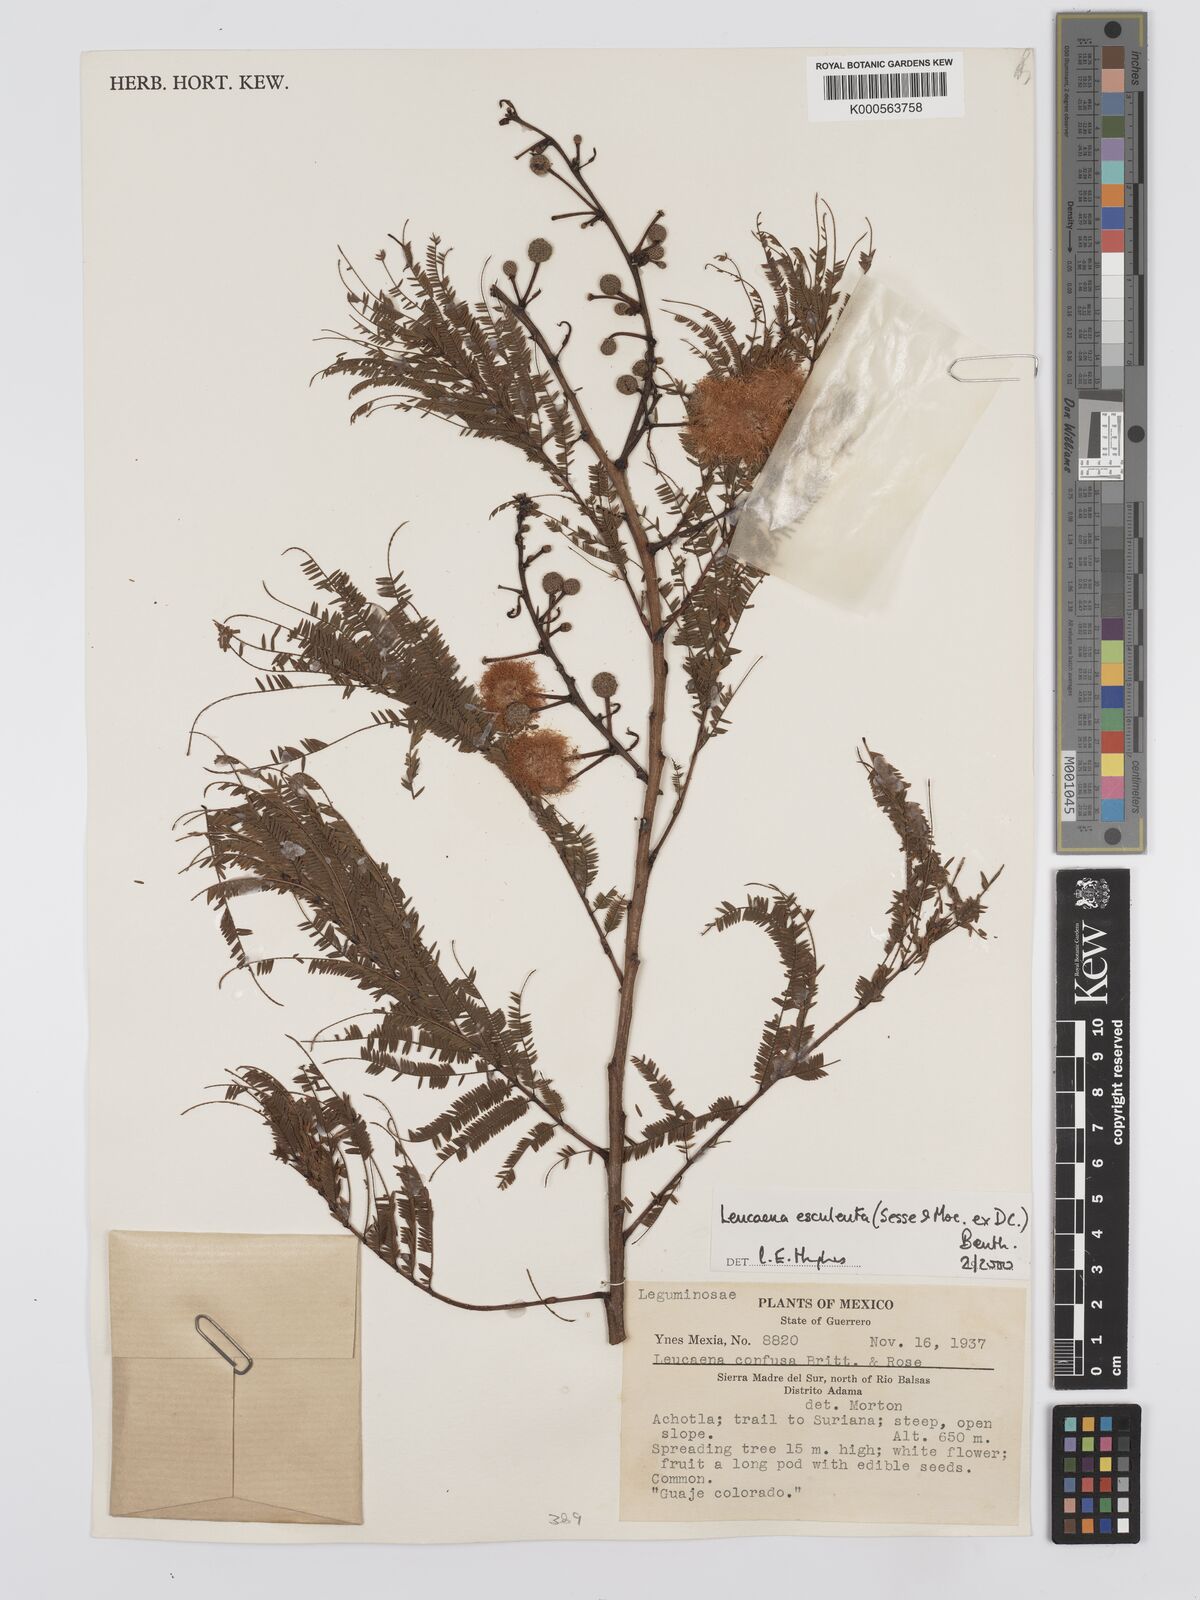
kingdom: Plantae
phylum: Tracheophyta
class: Magnoliopsida
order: Fabales
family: Fabaceae
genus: Leucaena
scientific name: Leucaena esculenta
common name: Guaje
